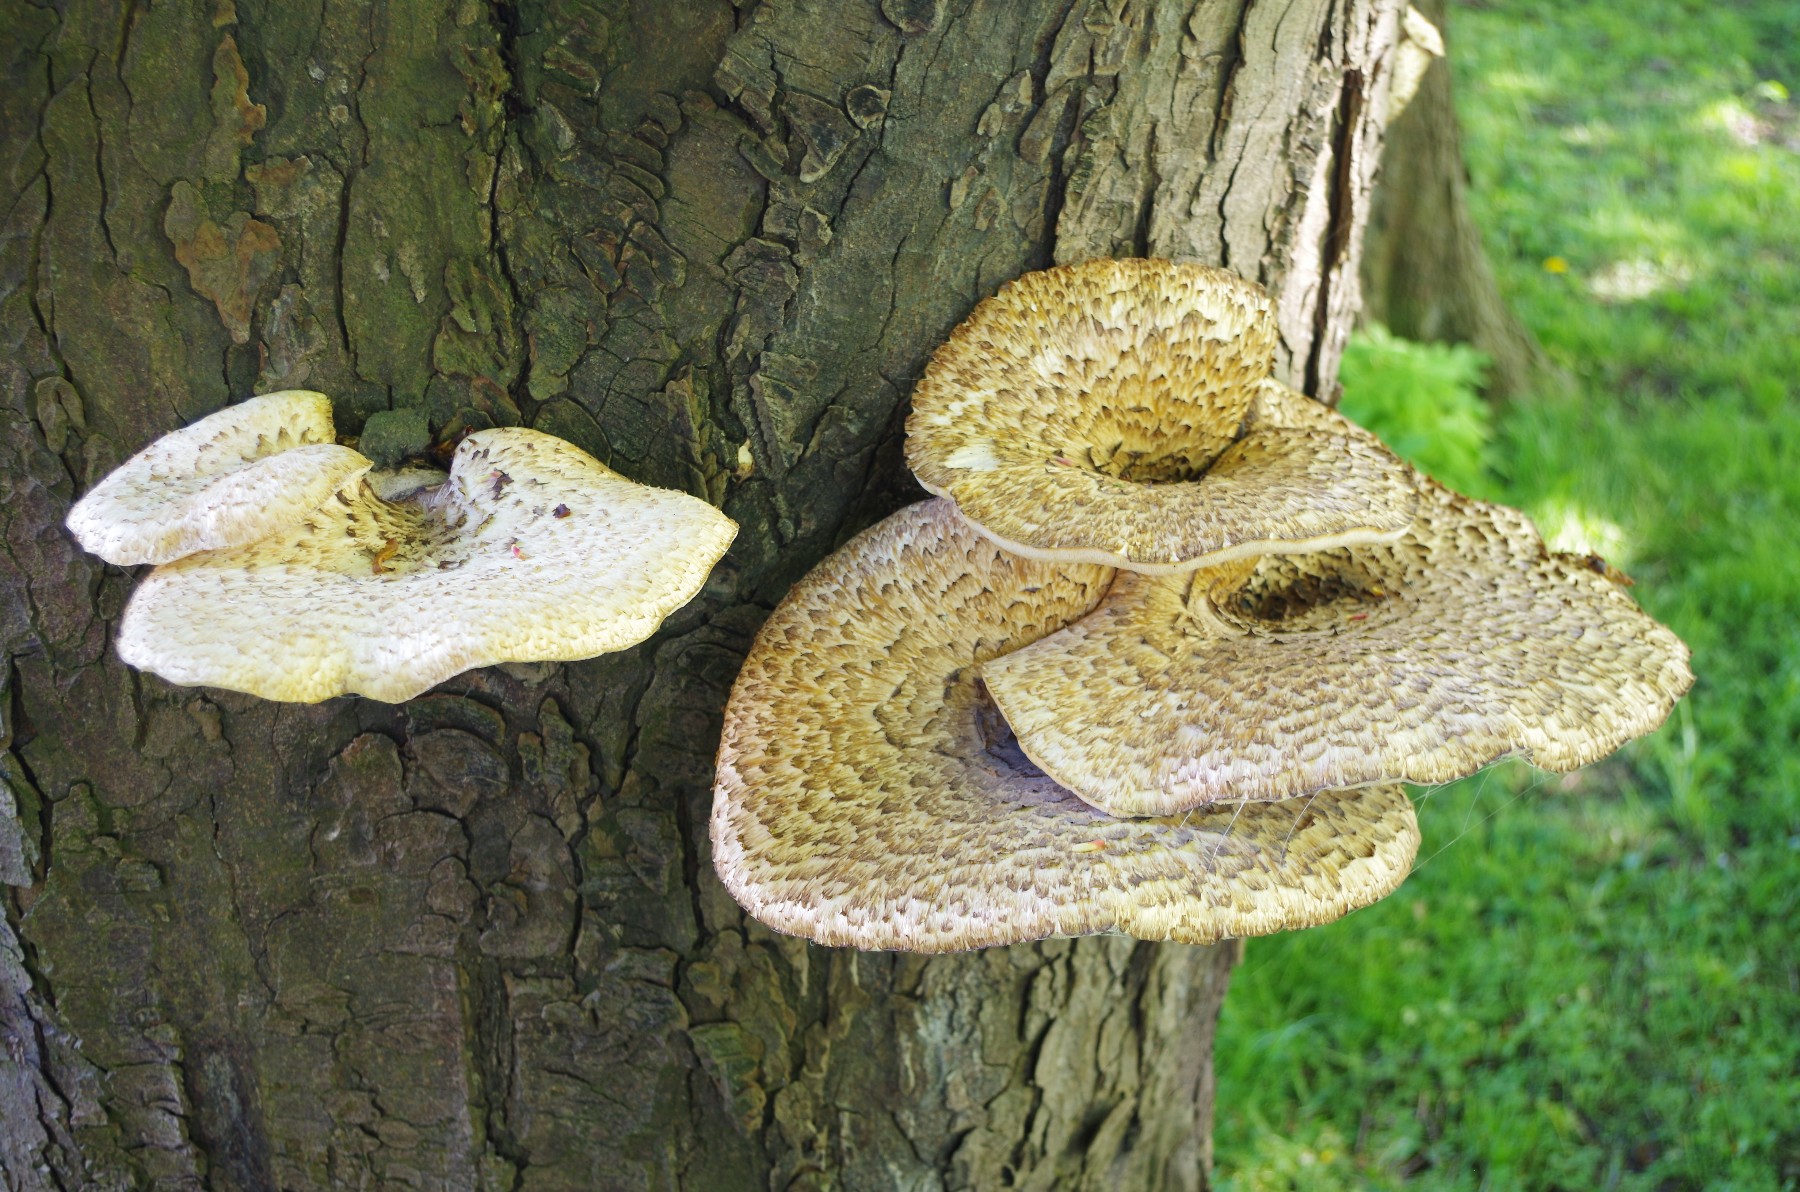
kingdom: Fungi
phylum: Basidiomycota
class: Agaricomycetes
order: Polyporales
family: Polyporaceae
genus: Cerioporus
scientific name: Cerioporus squamosus
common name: skællet stilkporesvamp
